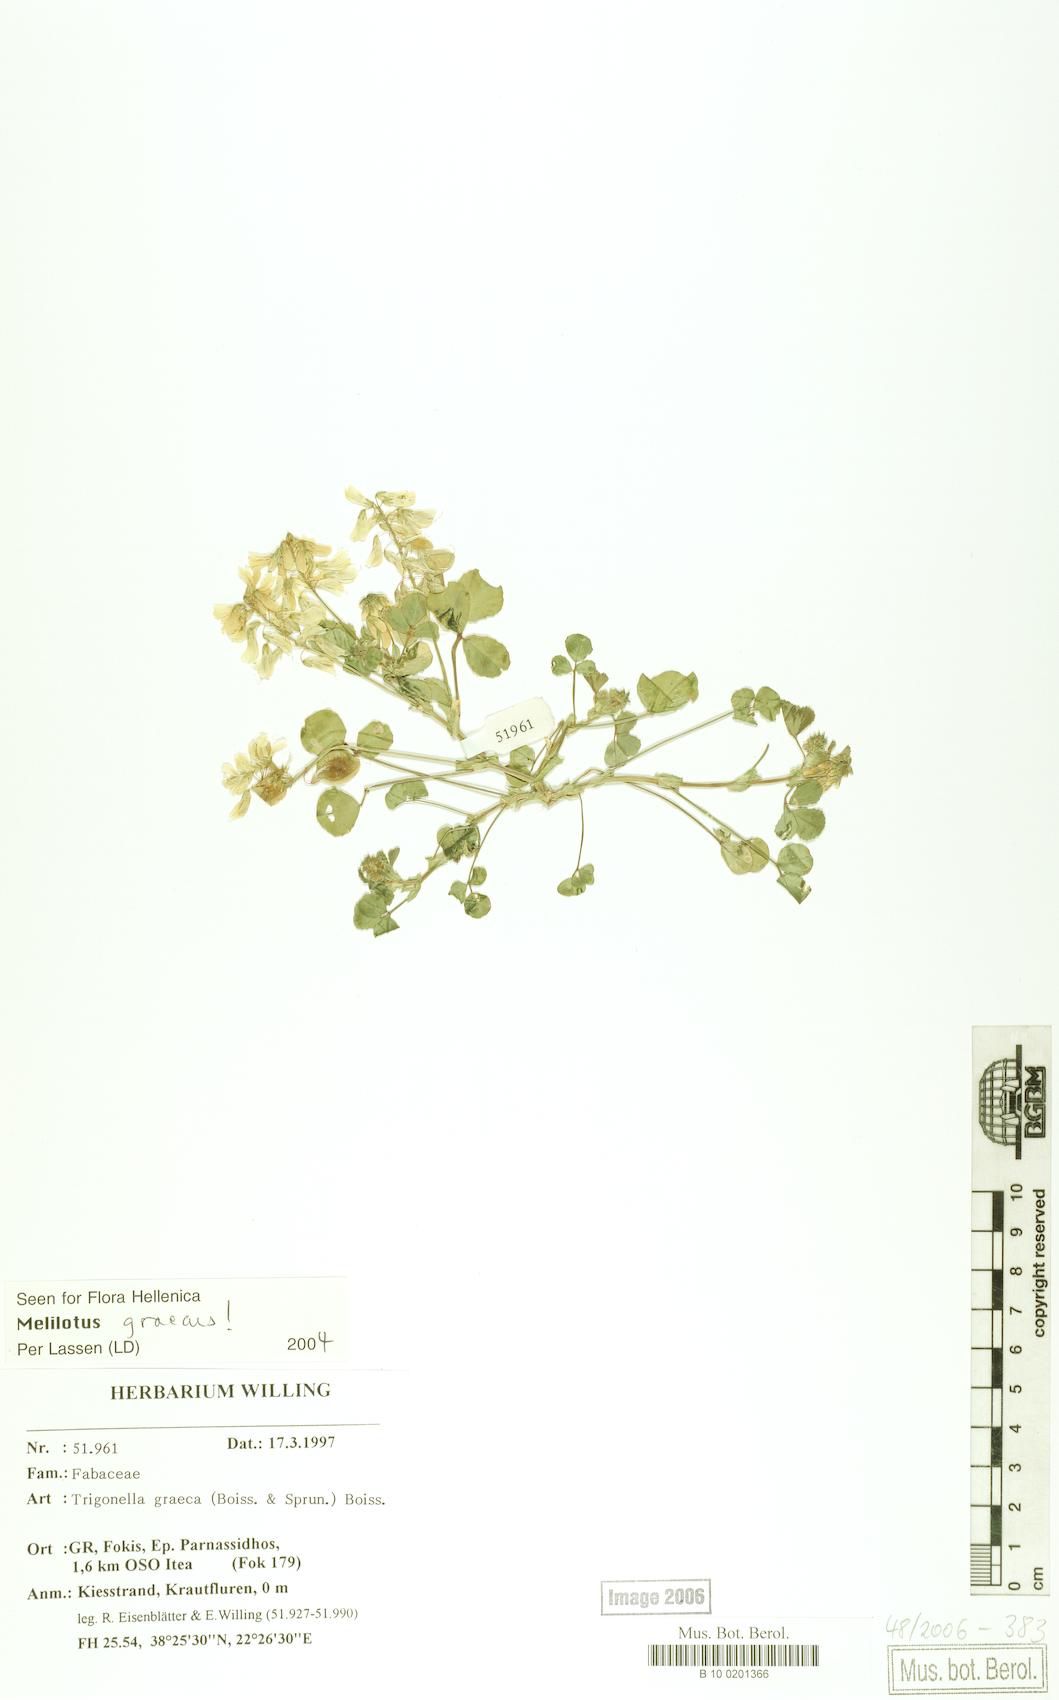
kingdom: Plantae
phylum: Tracheophyta
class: Magnoliopsida
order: Fabales
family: Fabaceae
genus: Trigonella
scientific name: Trigonella graeca
